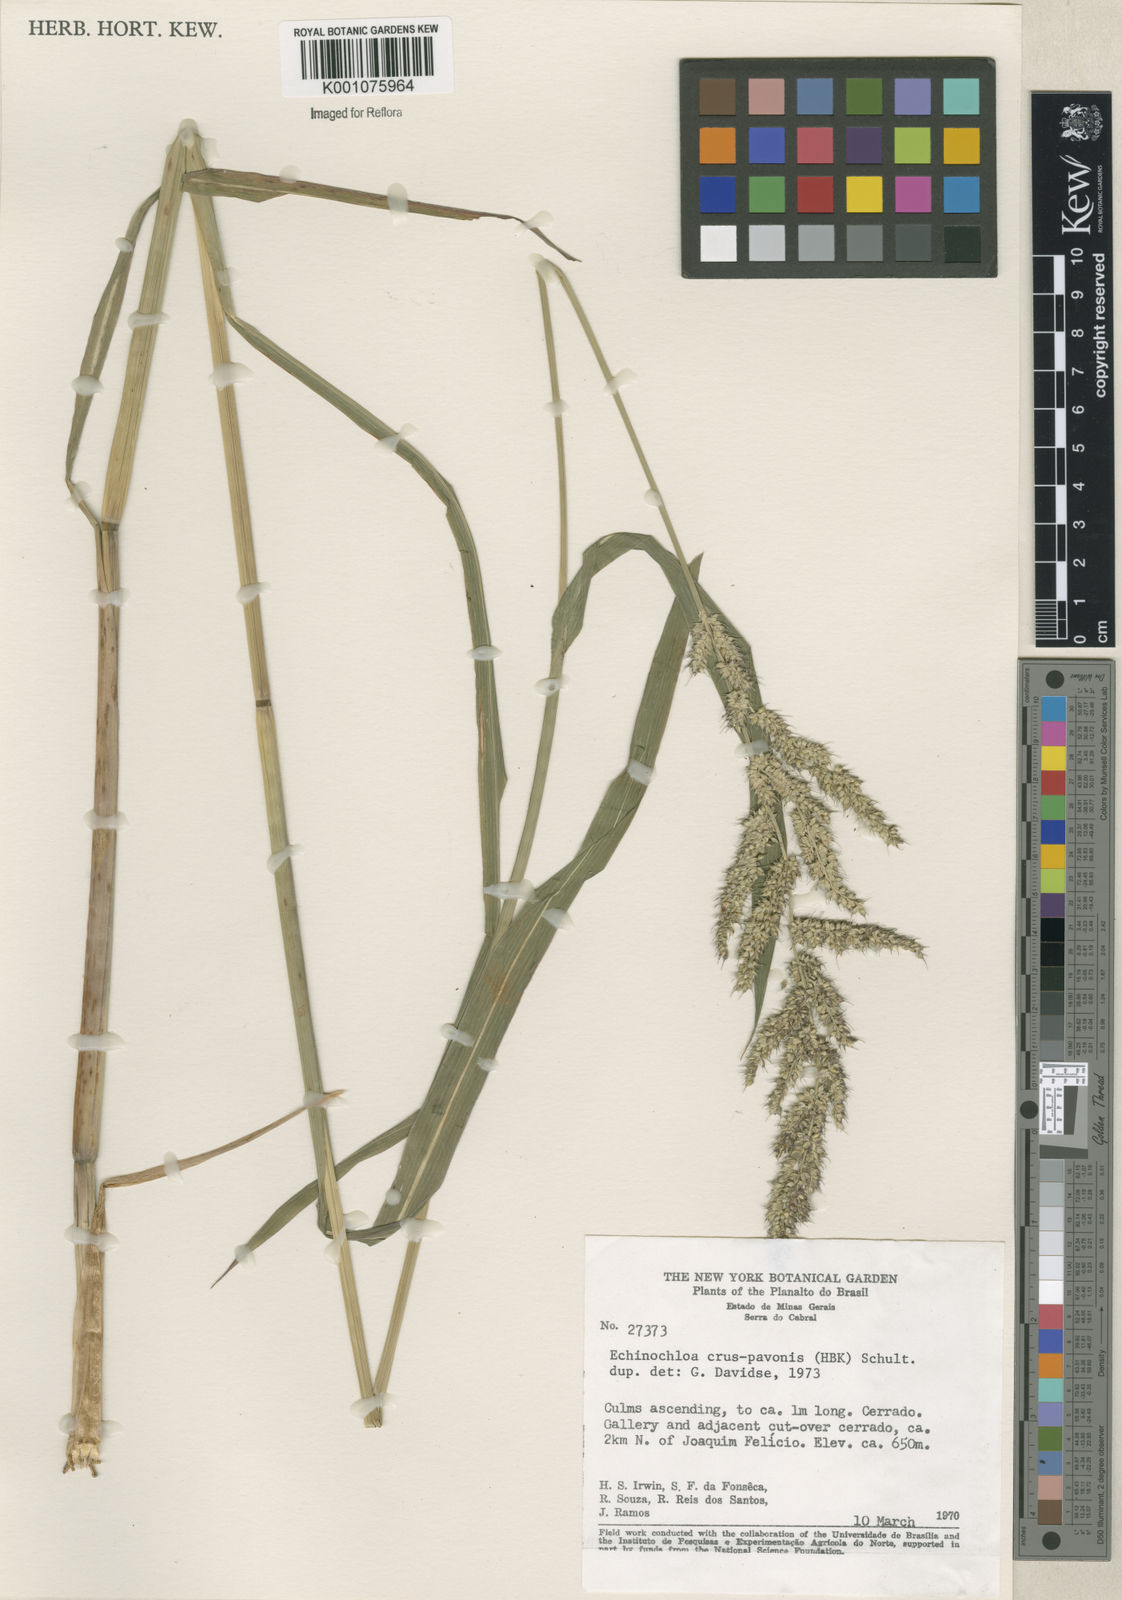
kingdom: Plantae
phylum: Tracheophyta
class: Liliopsida
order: Poales
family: Poaceae
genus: Echinochloa
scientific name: Echinochloa crus-pavonis
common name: Gulf cockspur grass
